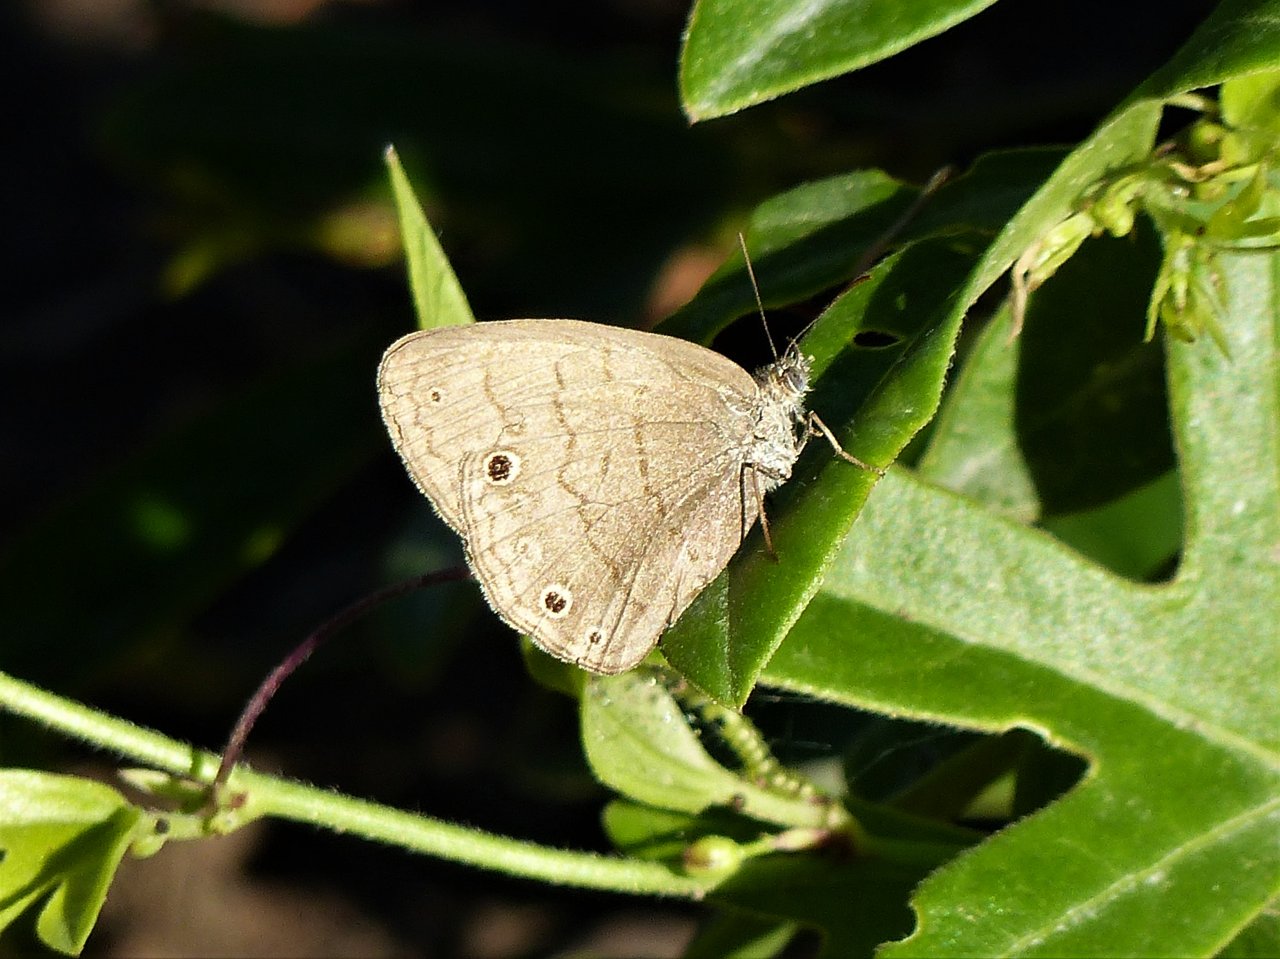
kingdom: Animalia
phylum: Arthropoda
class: Insecta
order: Lepidoptera
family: Nymphalidae
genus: Hermeuptychia
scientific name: Hermeuptychia hermybius
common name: South Texas Satyr
